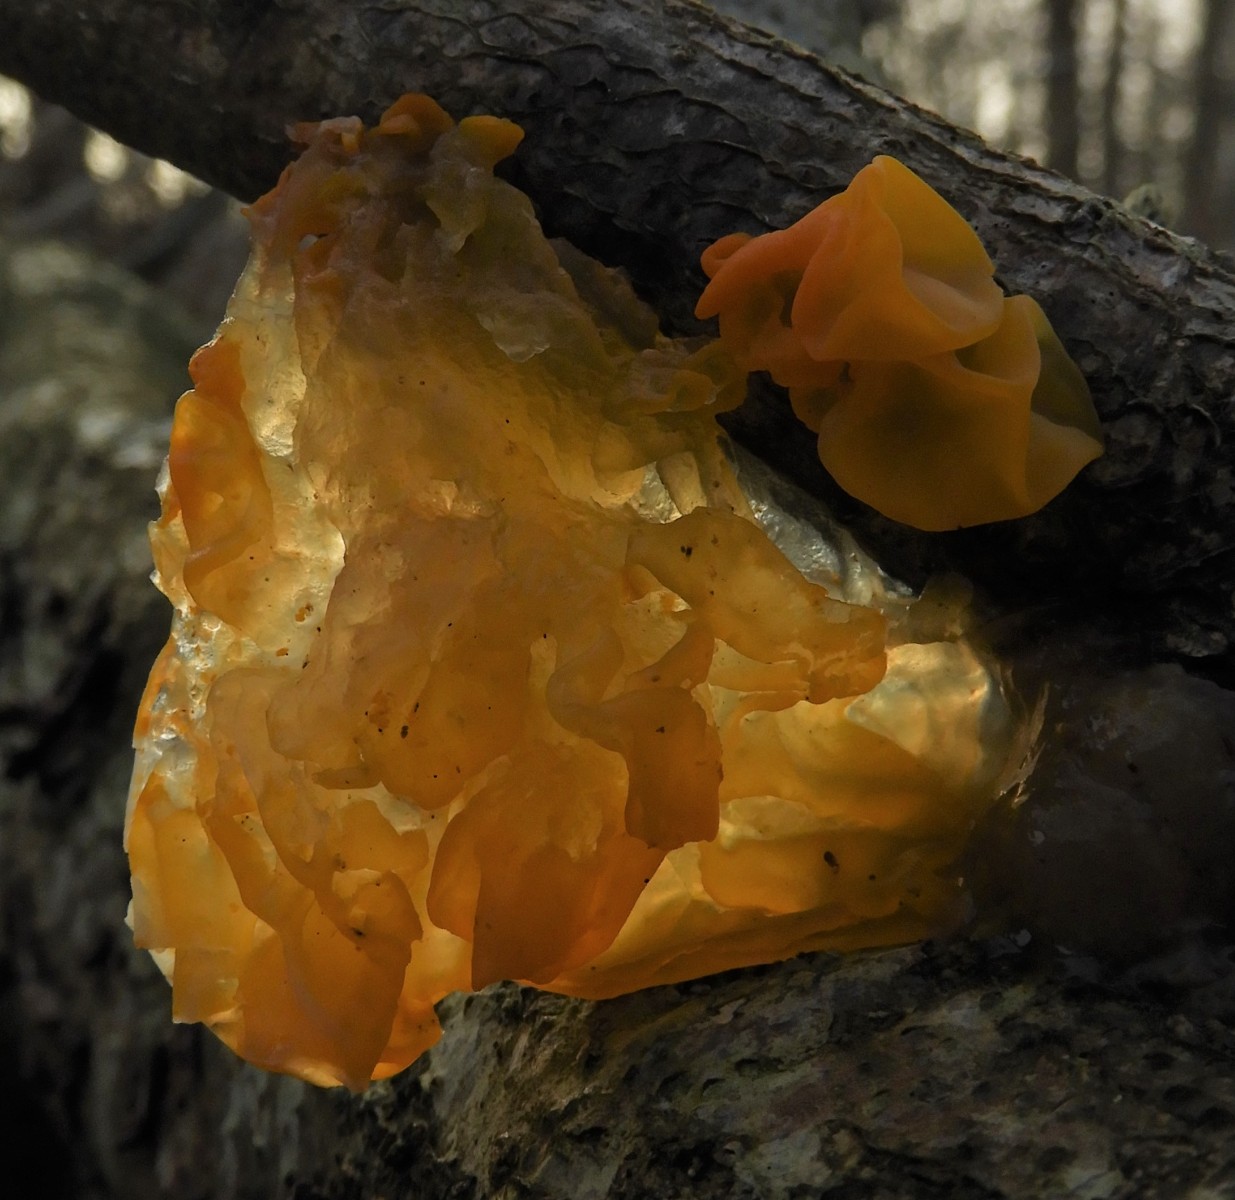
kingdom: Fungi
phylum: Basidiomycota
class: Tremellomycetes
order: Tremellales
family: Tremellaceae
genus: Tremella
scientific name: Tremella mesenterica
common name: gul bævresvamp
